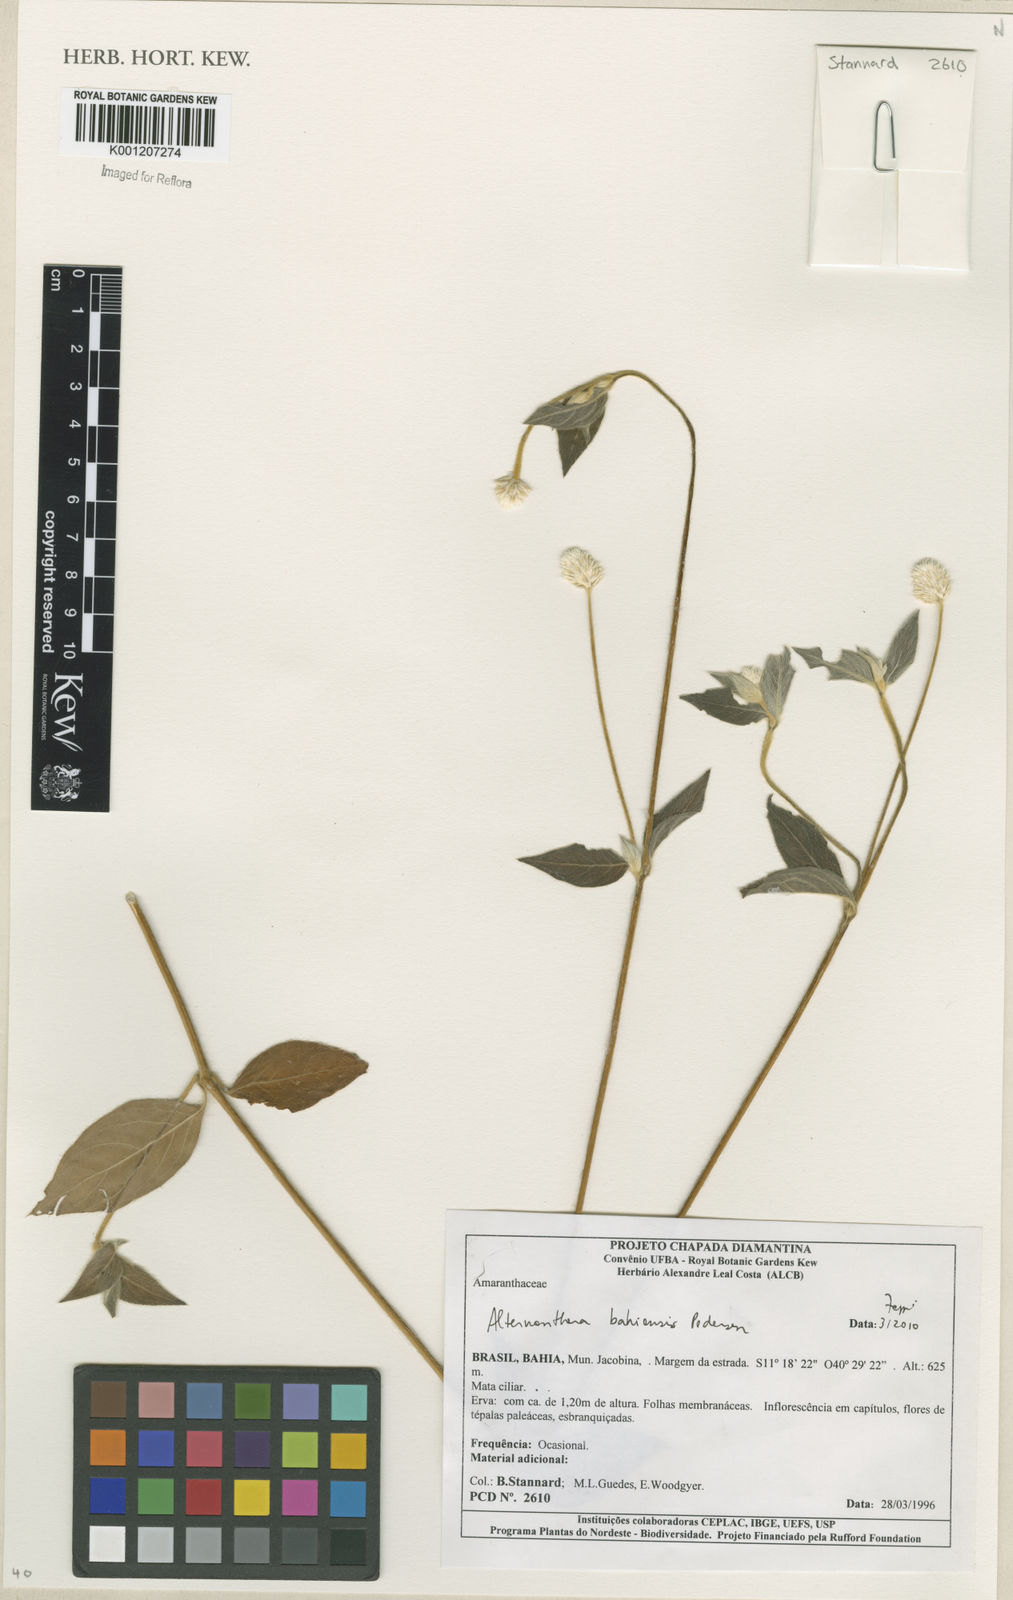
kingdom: Plantae
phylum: Tracheophyta
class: Magnoliopsida
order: Caryophyllales
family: Amaranthaceae
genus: Alternanthera
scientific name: Alternanthera bahiensis
